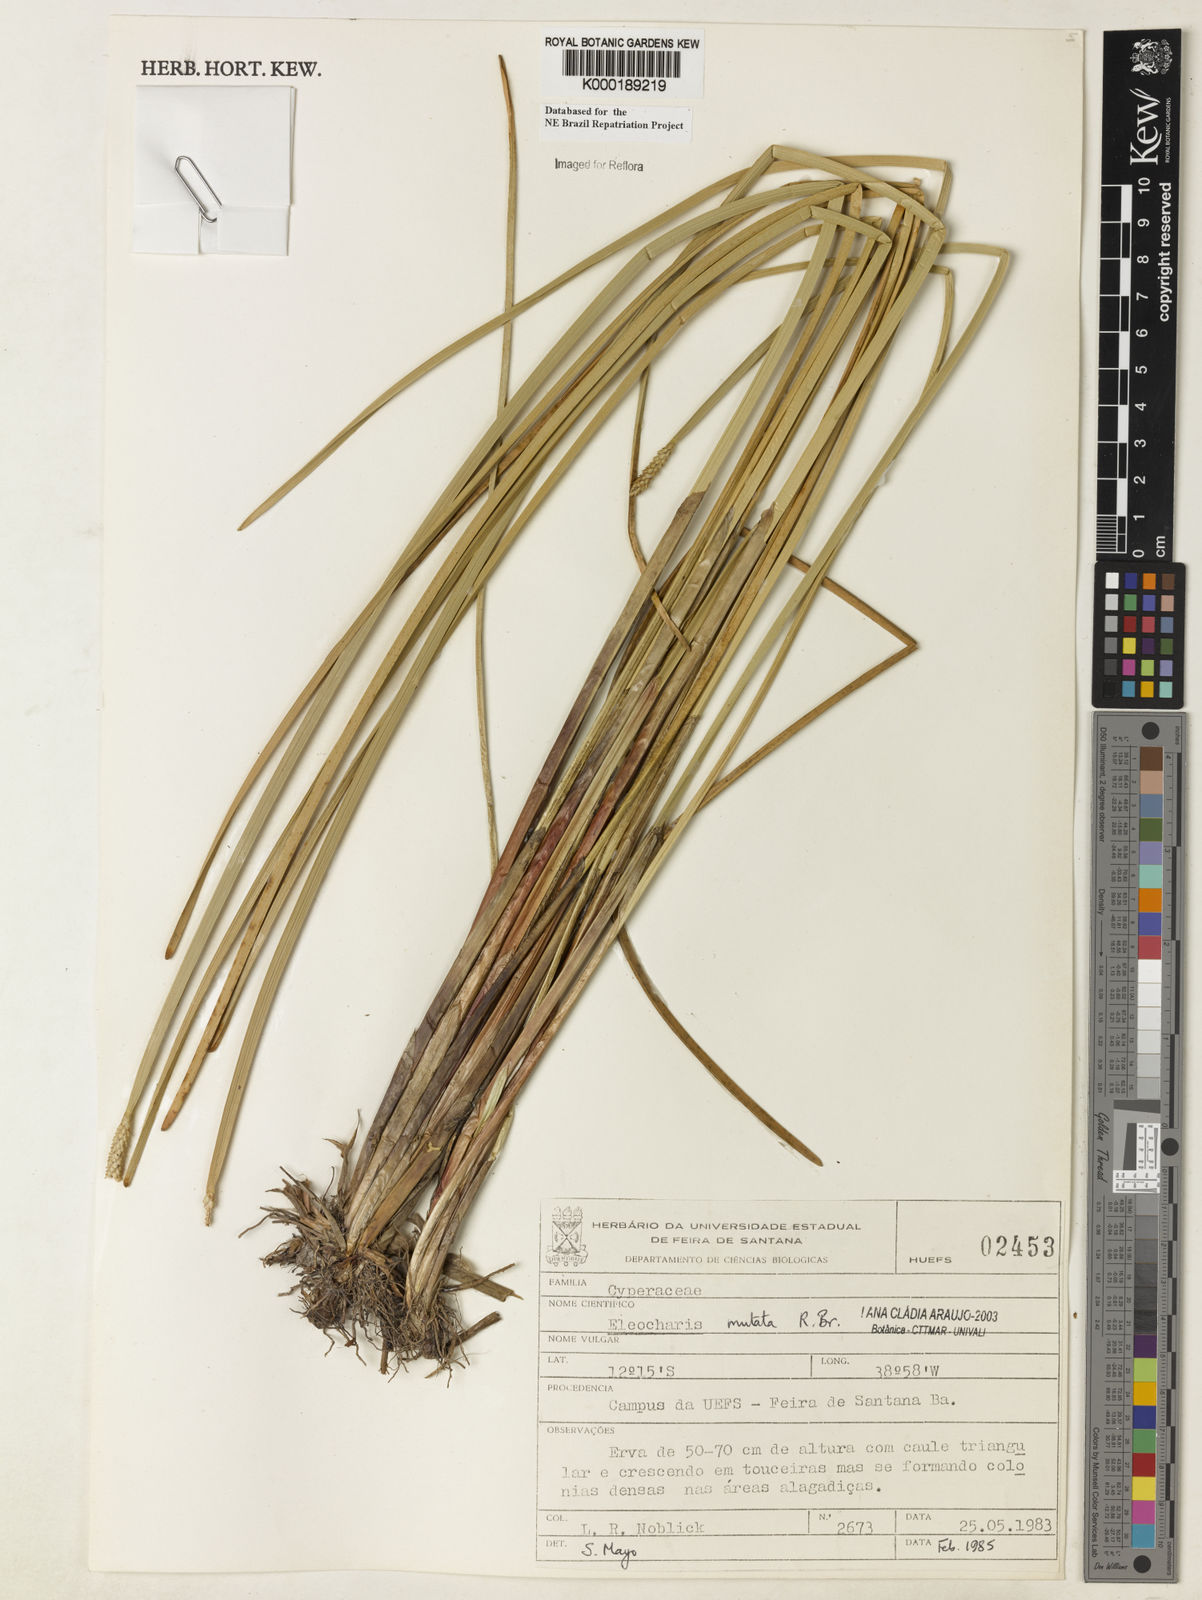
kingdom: Plantae
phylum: Tracheophyta
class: Liliopsida
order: Poales
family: Cyperaceae
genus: Eleocharis
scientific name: Eleocharis mutata
